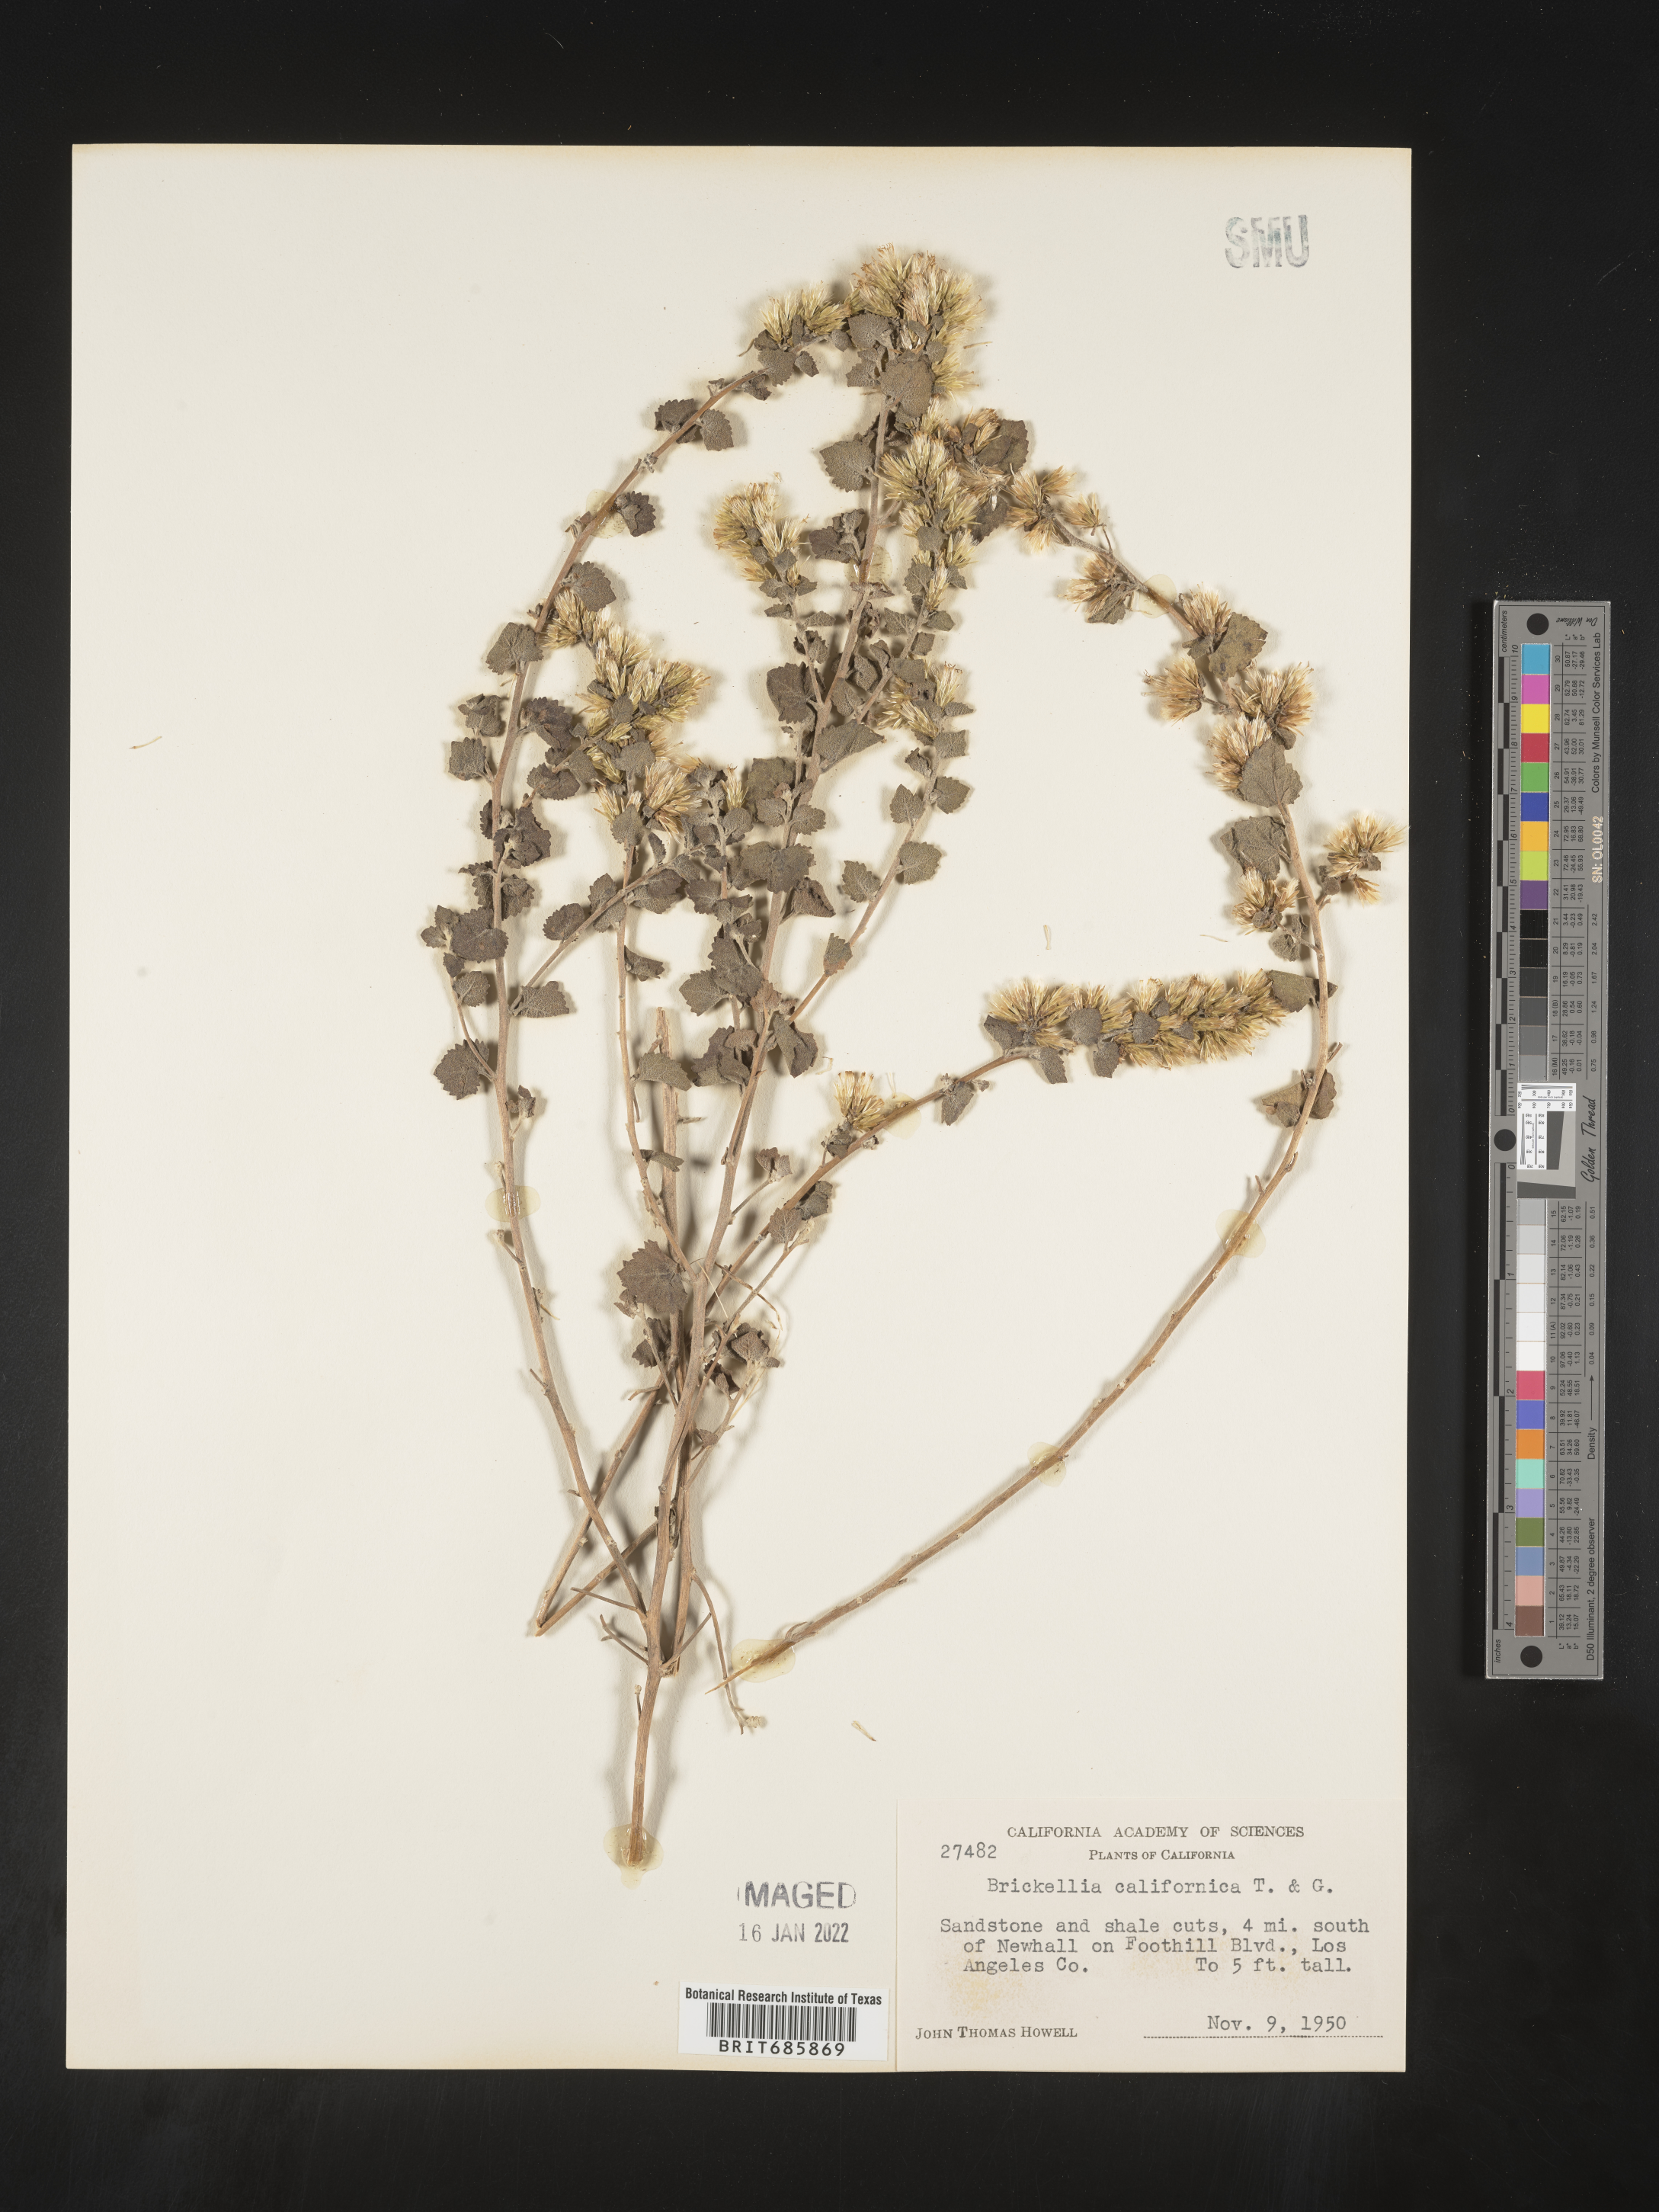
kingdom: Plantae
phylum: Tracheophyta
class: Magnoliopsida
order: Asterales
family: Asteraceae
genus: Brickellia
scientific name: Brickellia californica
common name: California brickellbush
